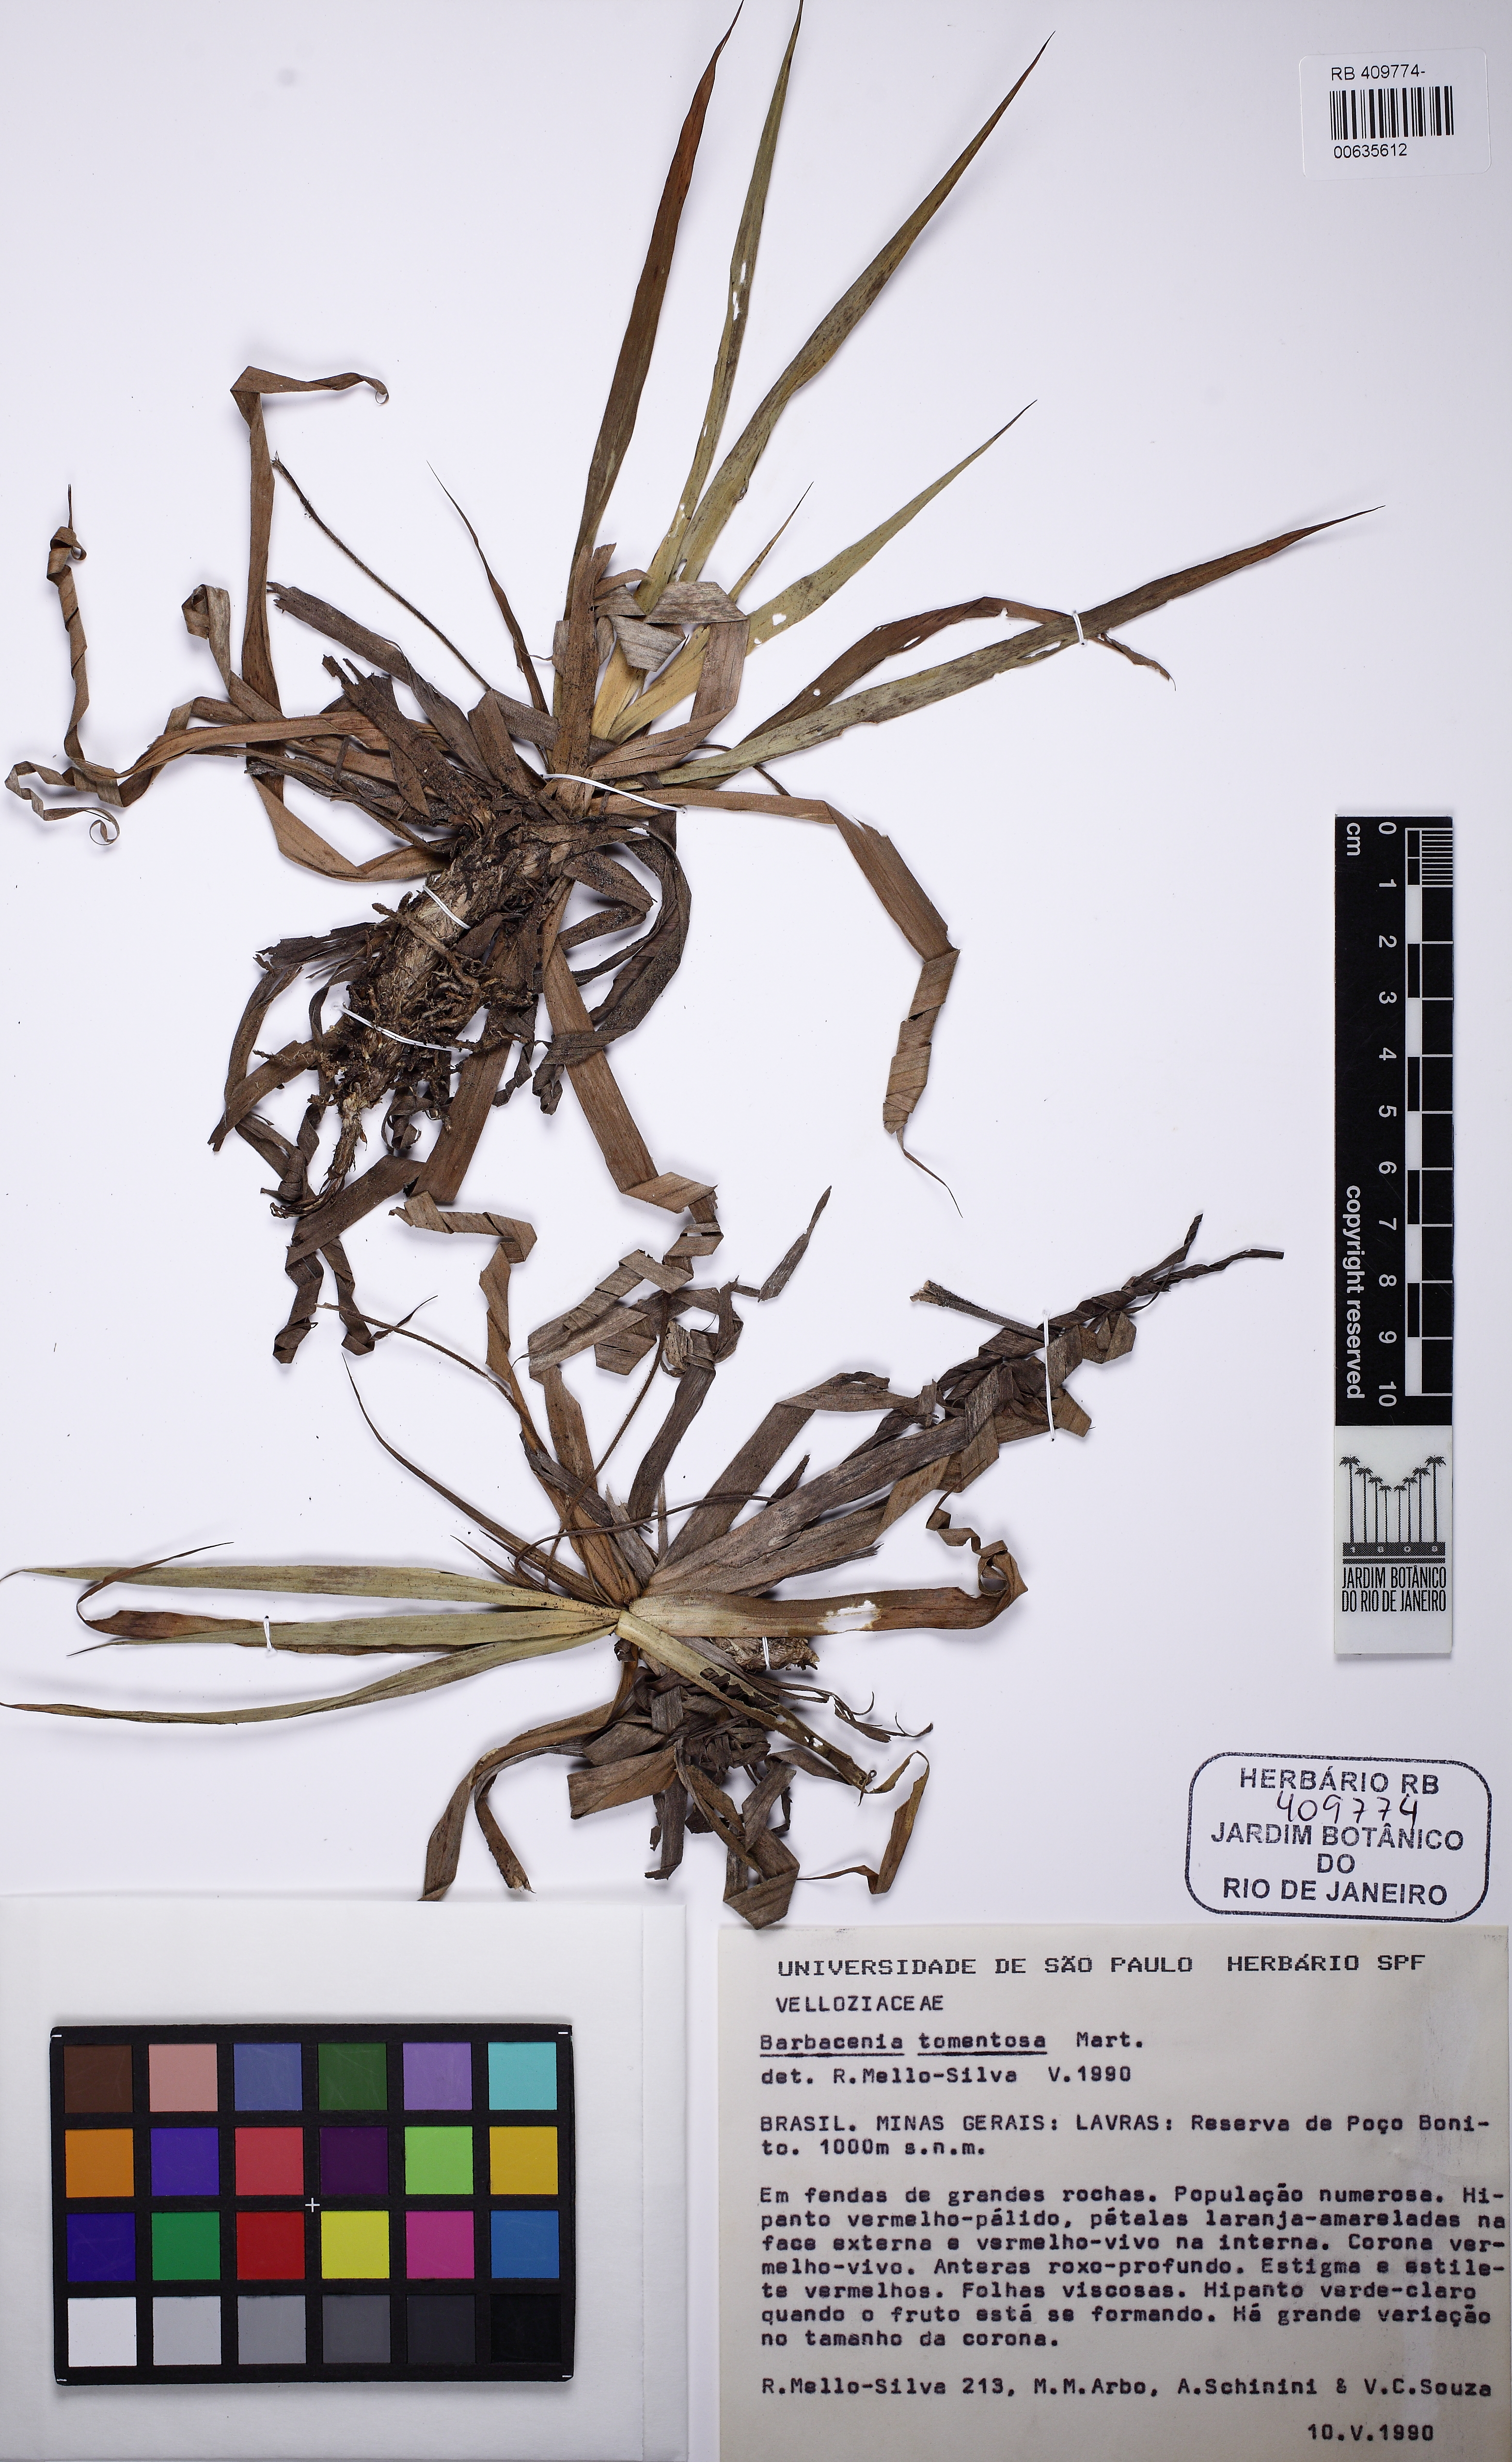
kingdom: Plantae
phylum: Tracheophyta
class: Liliopsida
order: Pandanales
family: Velloziaceae
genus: Barbacenia
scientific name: Barbacenia tomentosa
